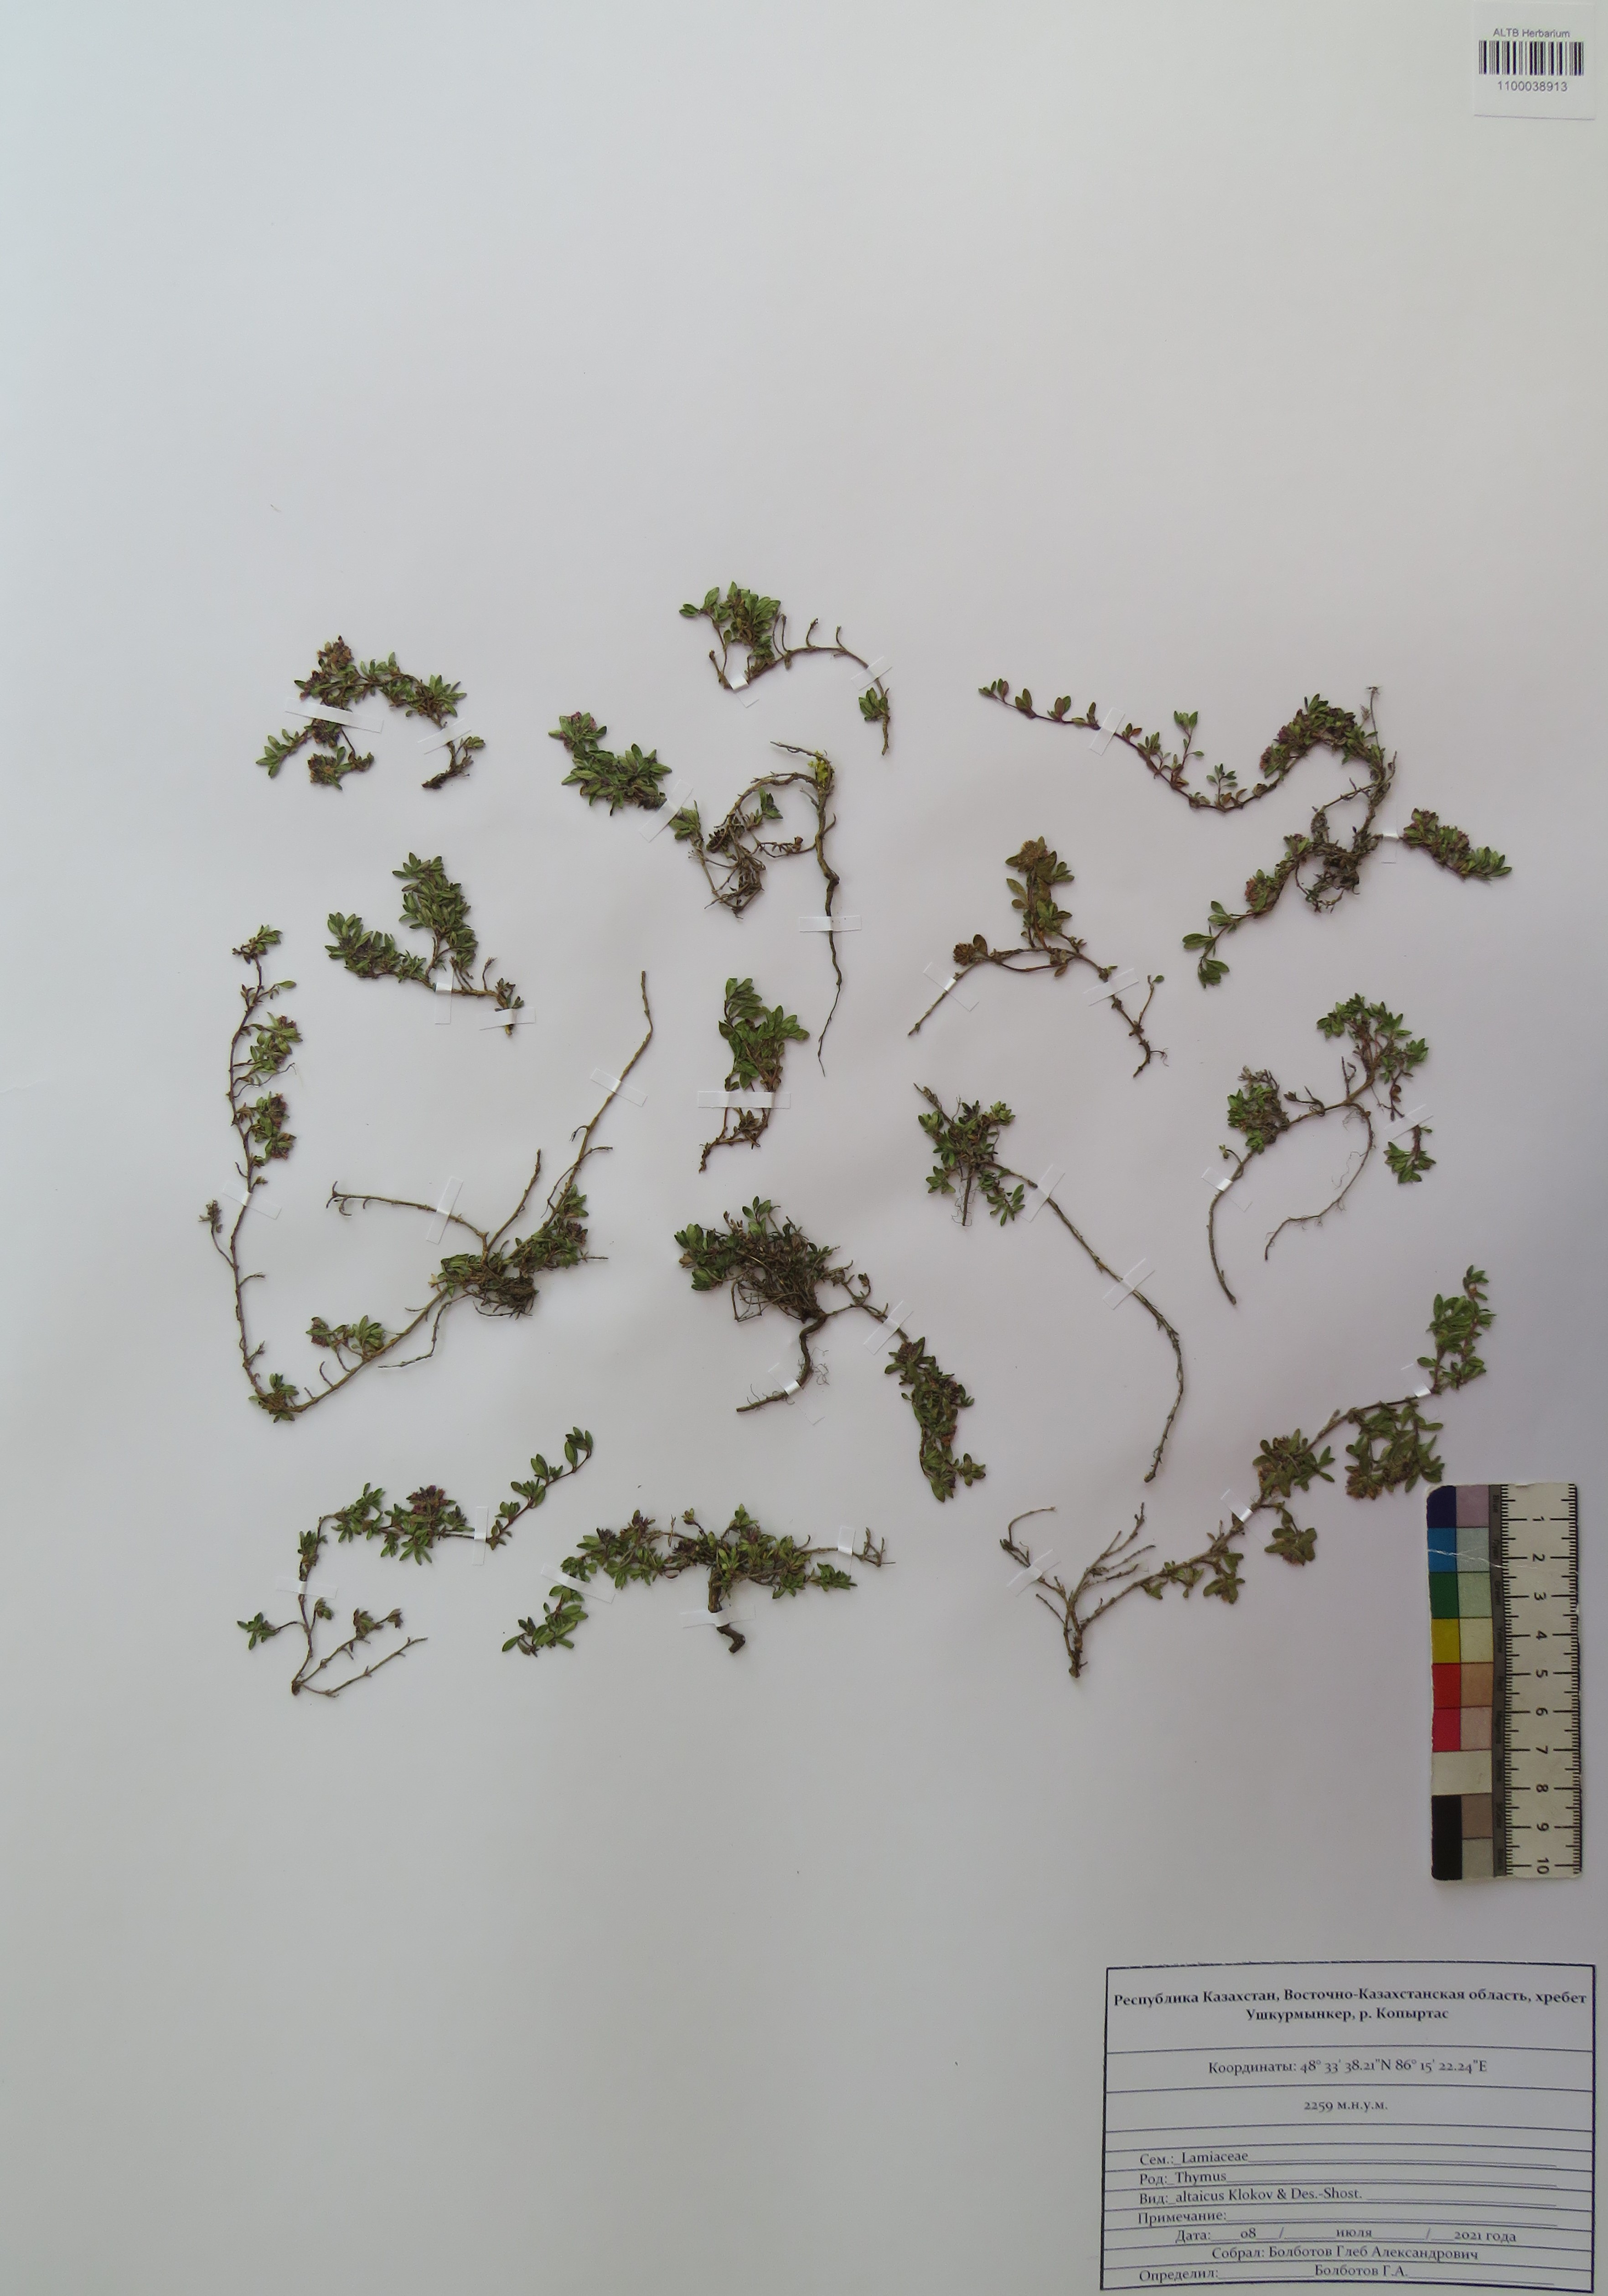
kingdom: Plantae
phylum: Tracheophyta
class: Magnoliopsida
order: Lamiales
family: Lamiaceae
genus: Thymus
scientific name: Thymus altaicus
